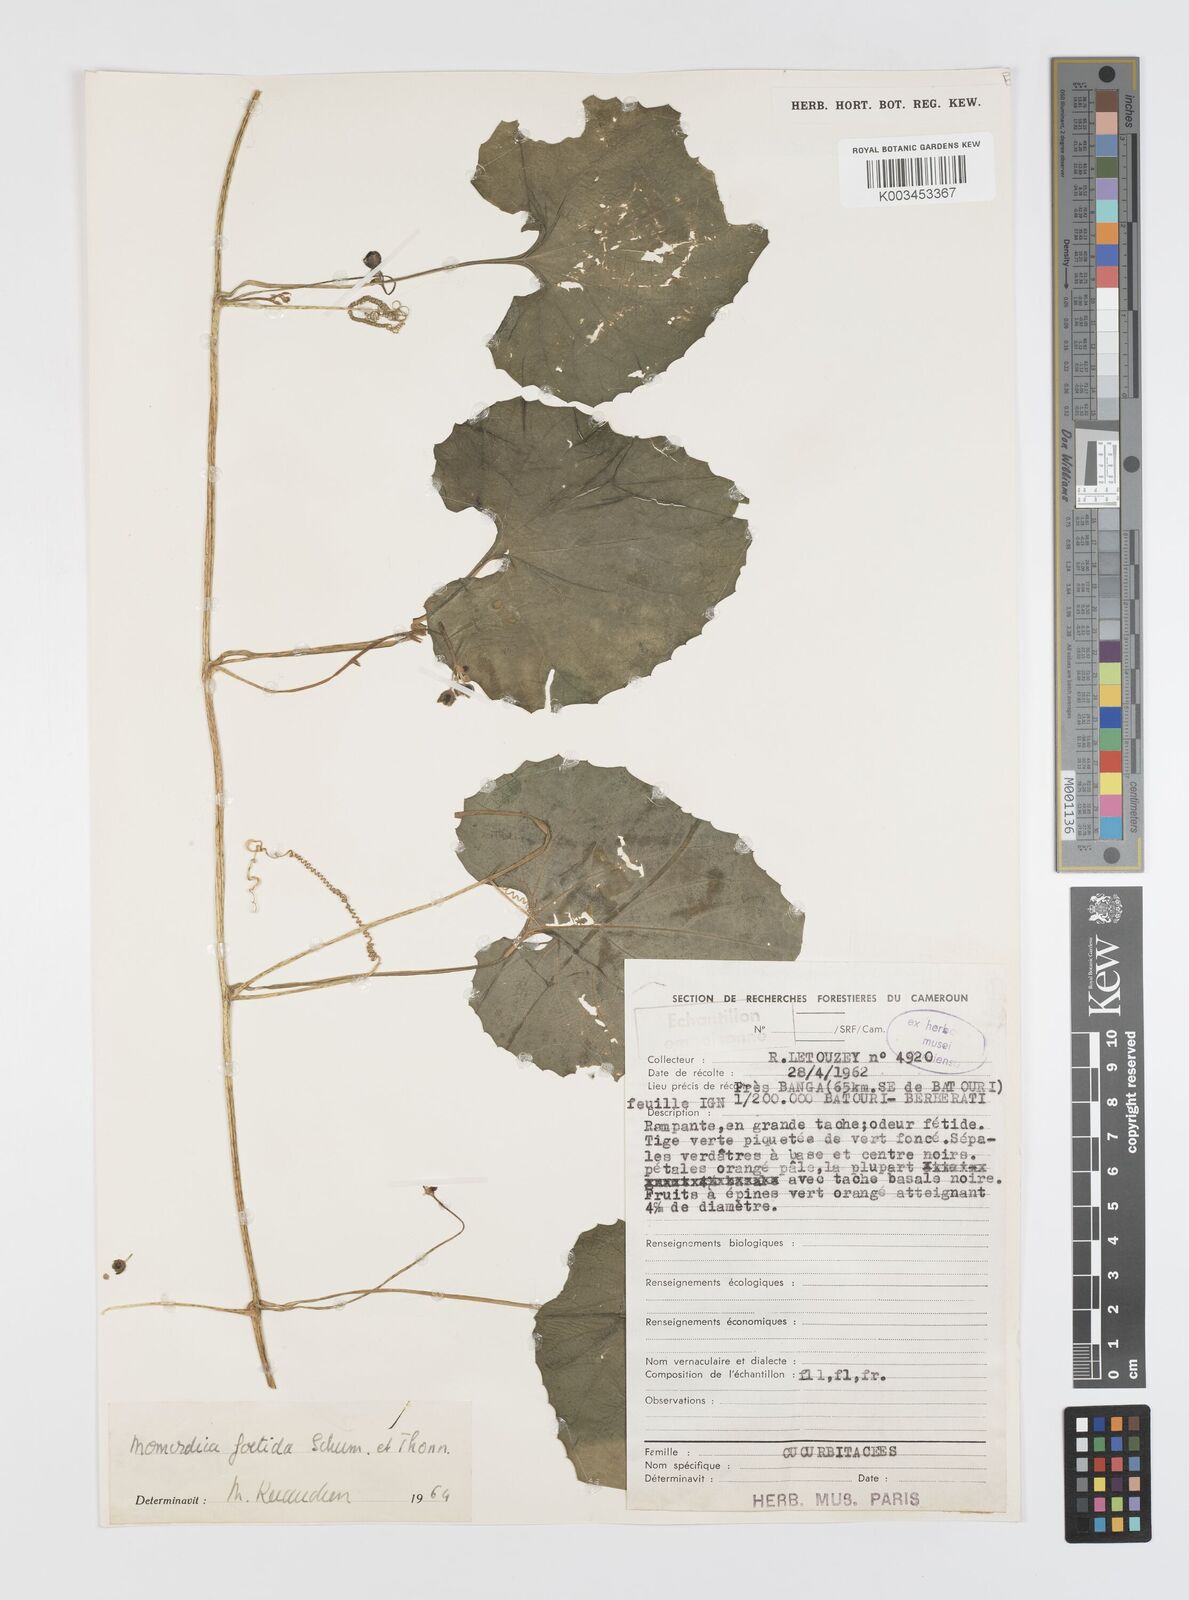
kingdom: Plantae
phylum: Tracheophyta
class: Magnoliopsida
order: Cucurbitales
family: Cucurbitaceae
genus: Momordica
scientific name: Momordica foetida
